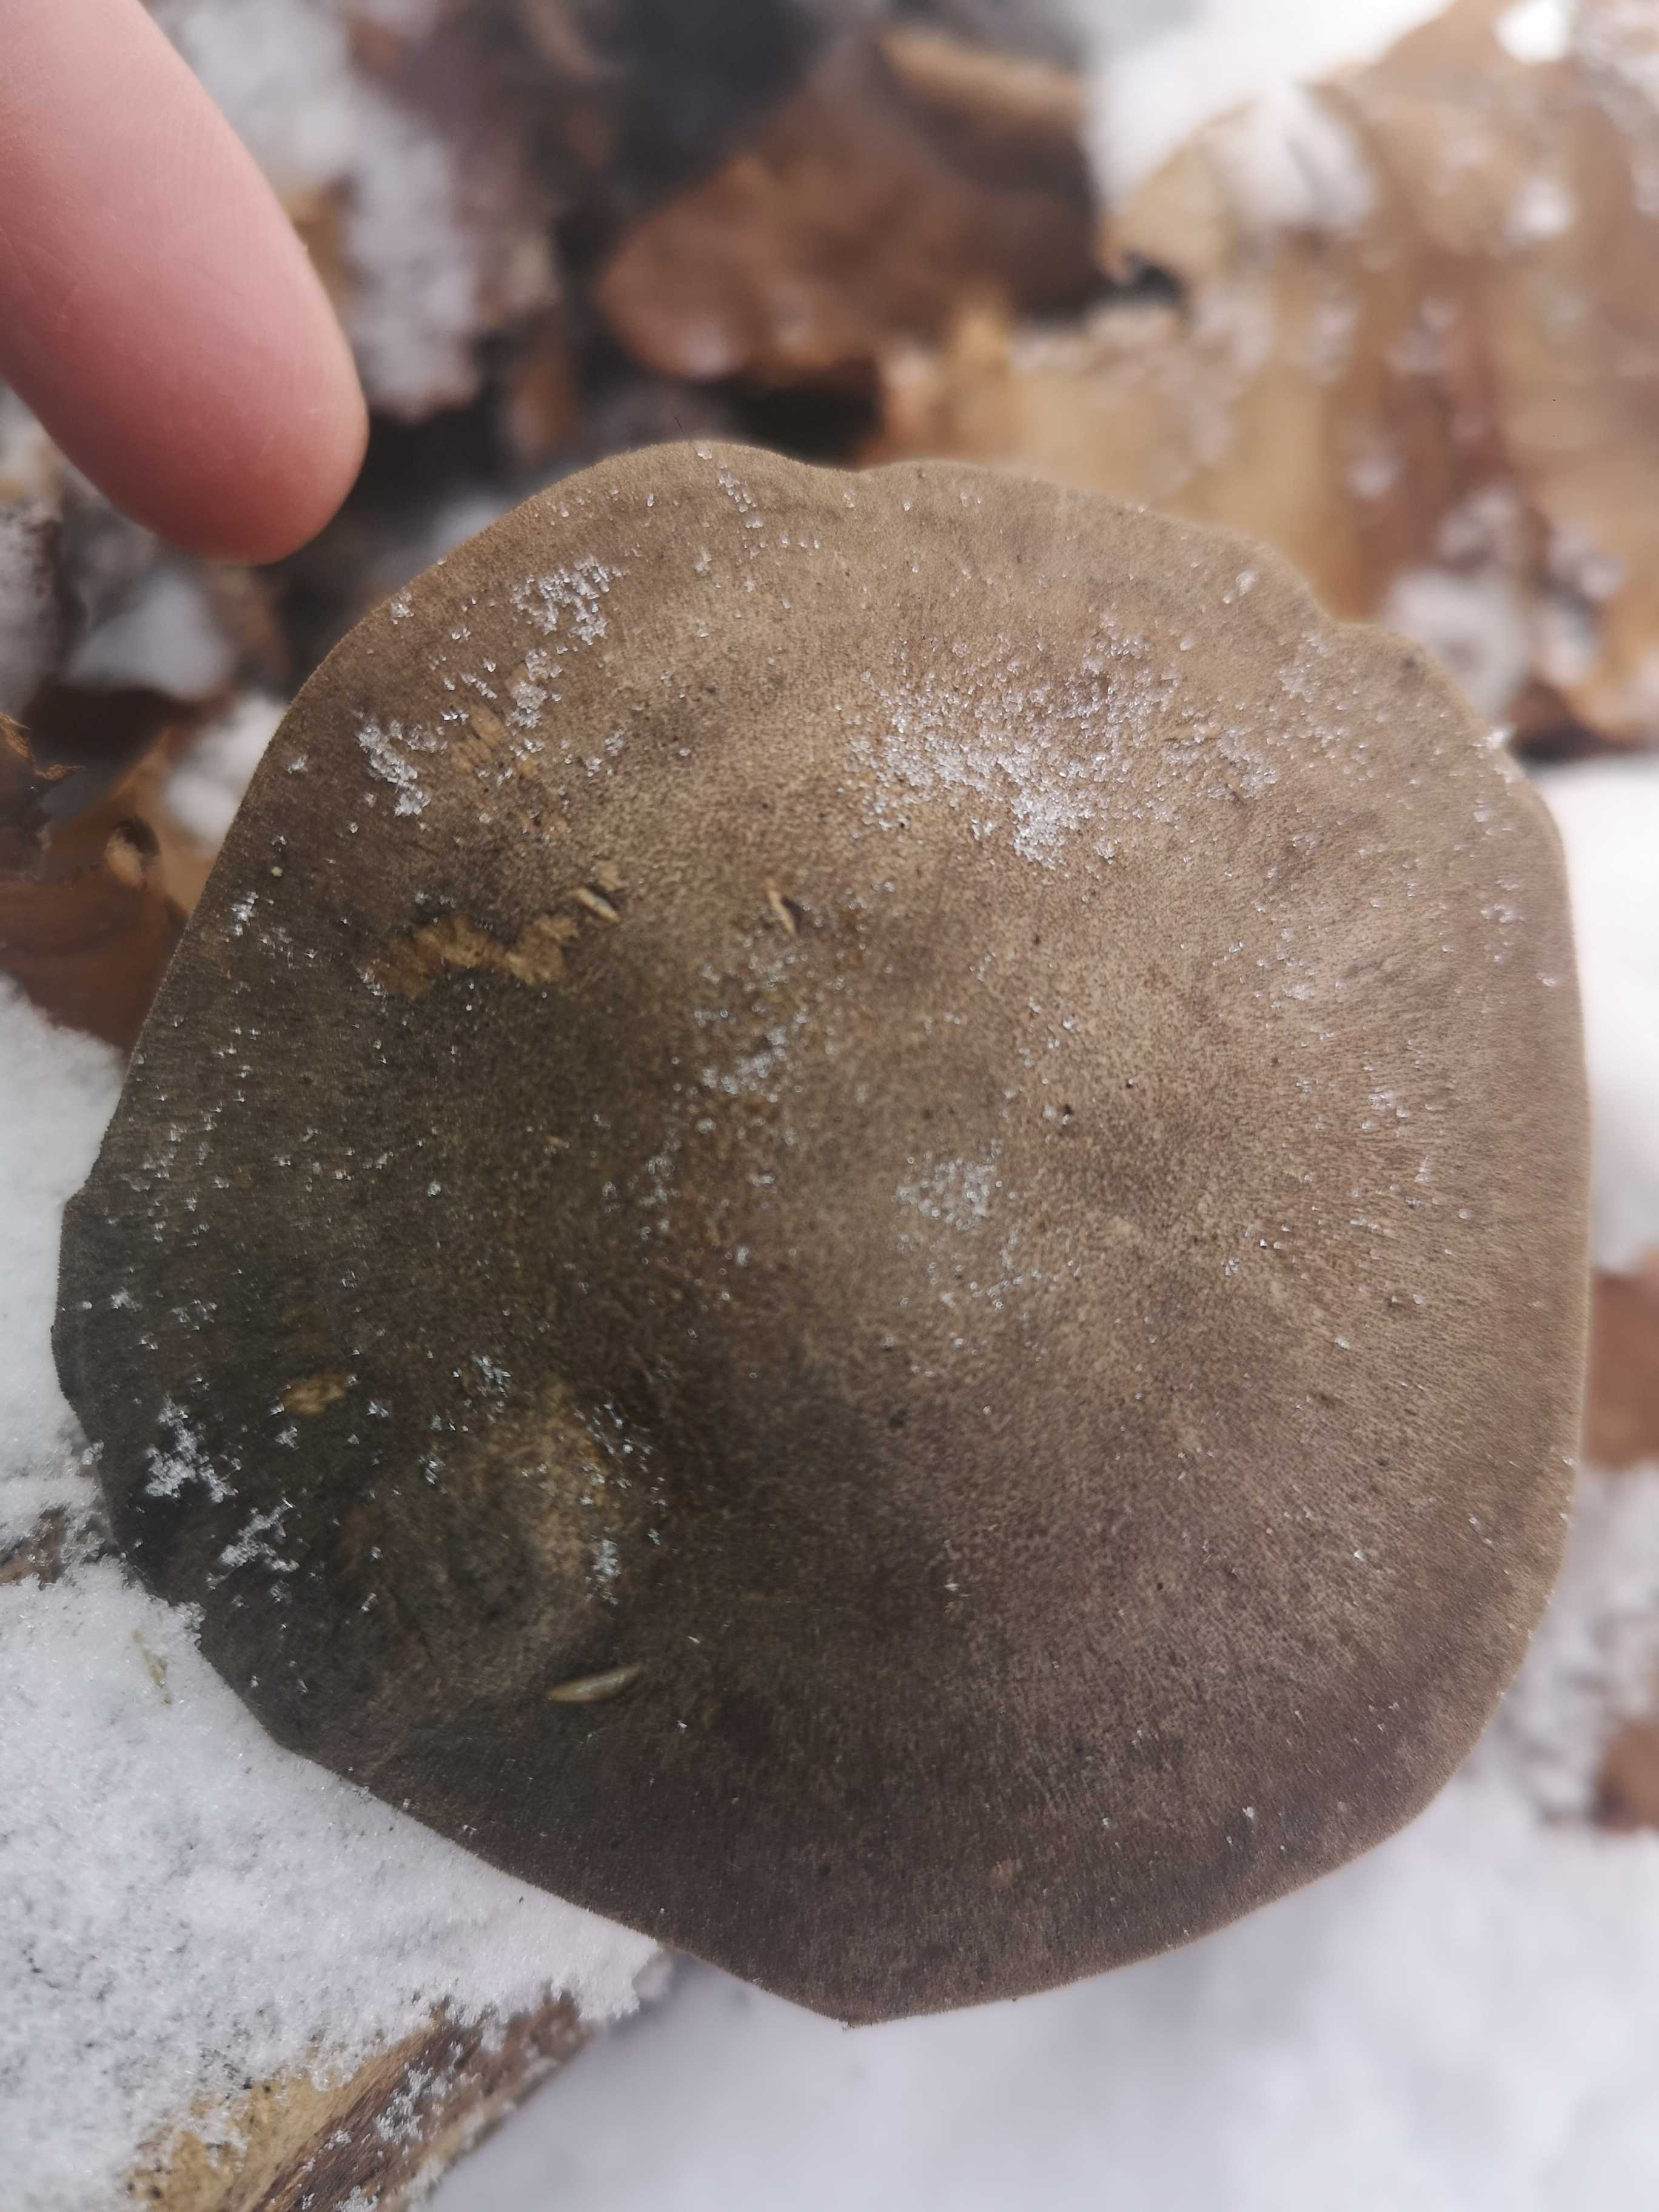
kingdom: Fungi
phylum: Basidiomycota
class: Agaricomycetes
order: Polyporales
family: Polyporaceae
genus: Lentinus
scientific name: Lentinus brumalis
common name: vinter-stilkporesvamp
